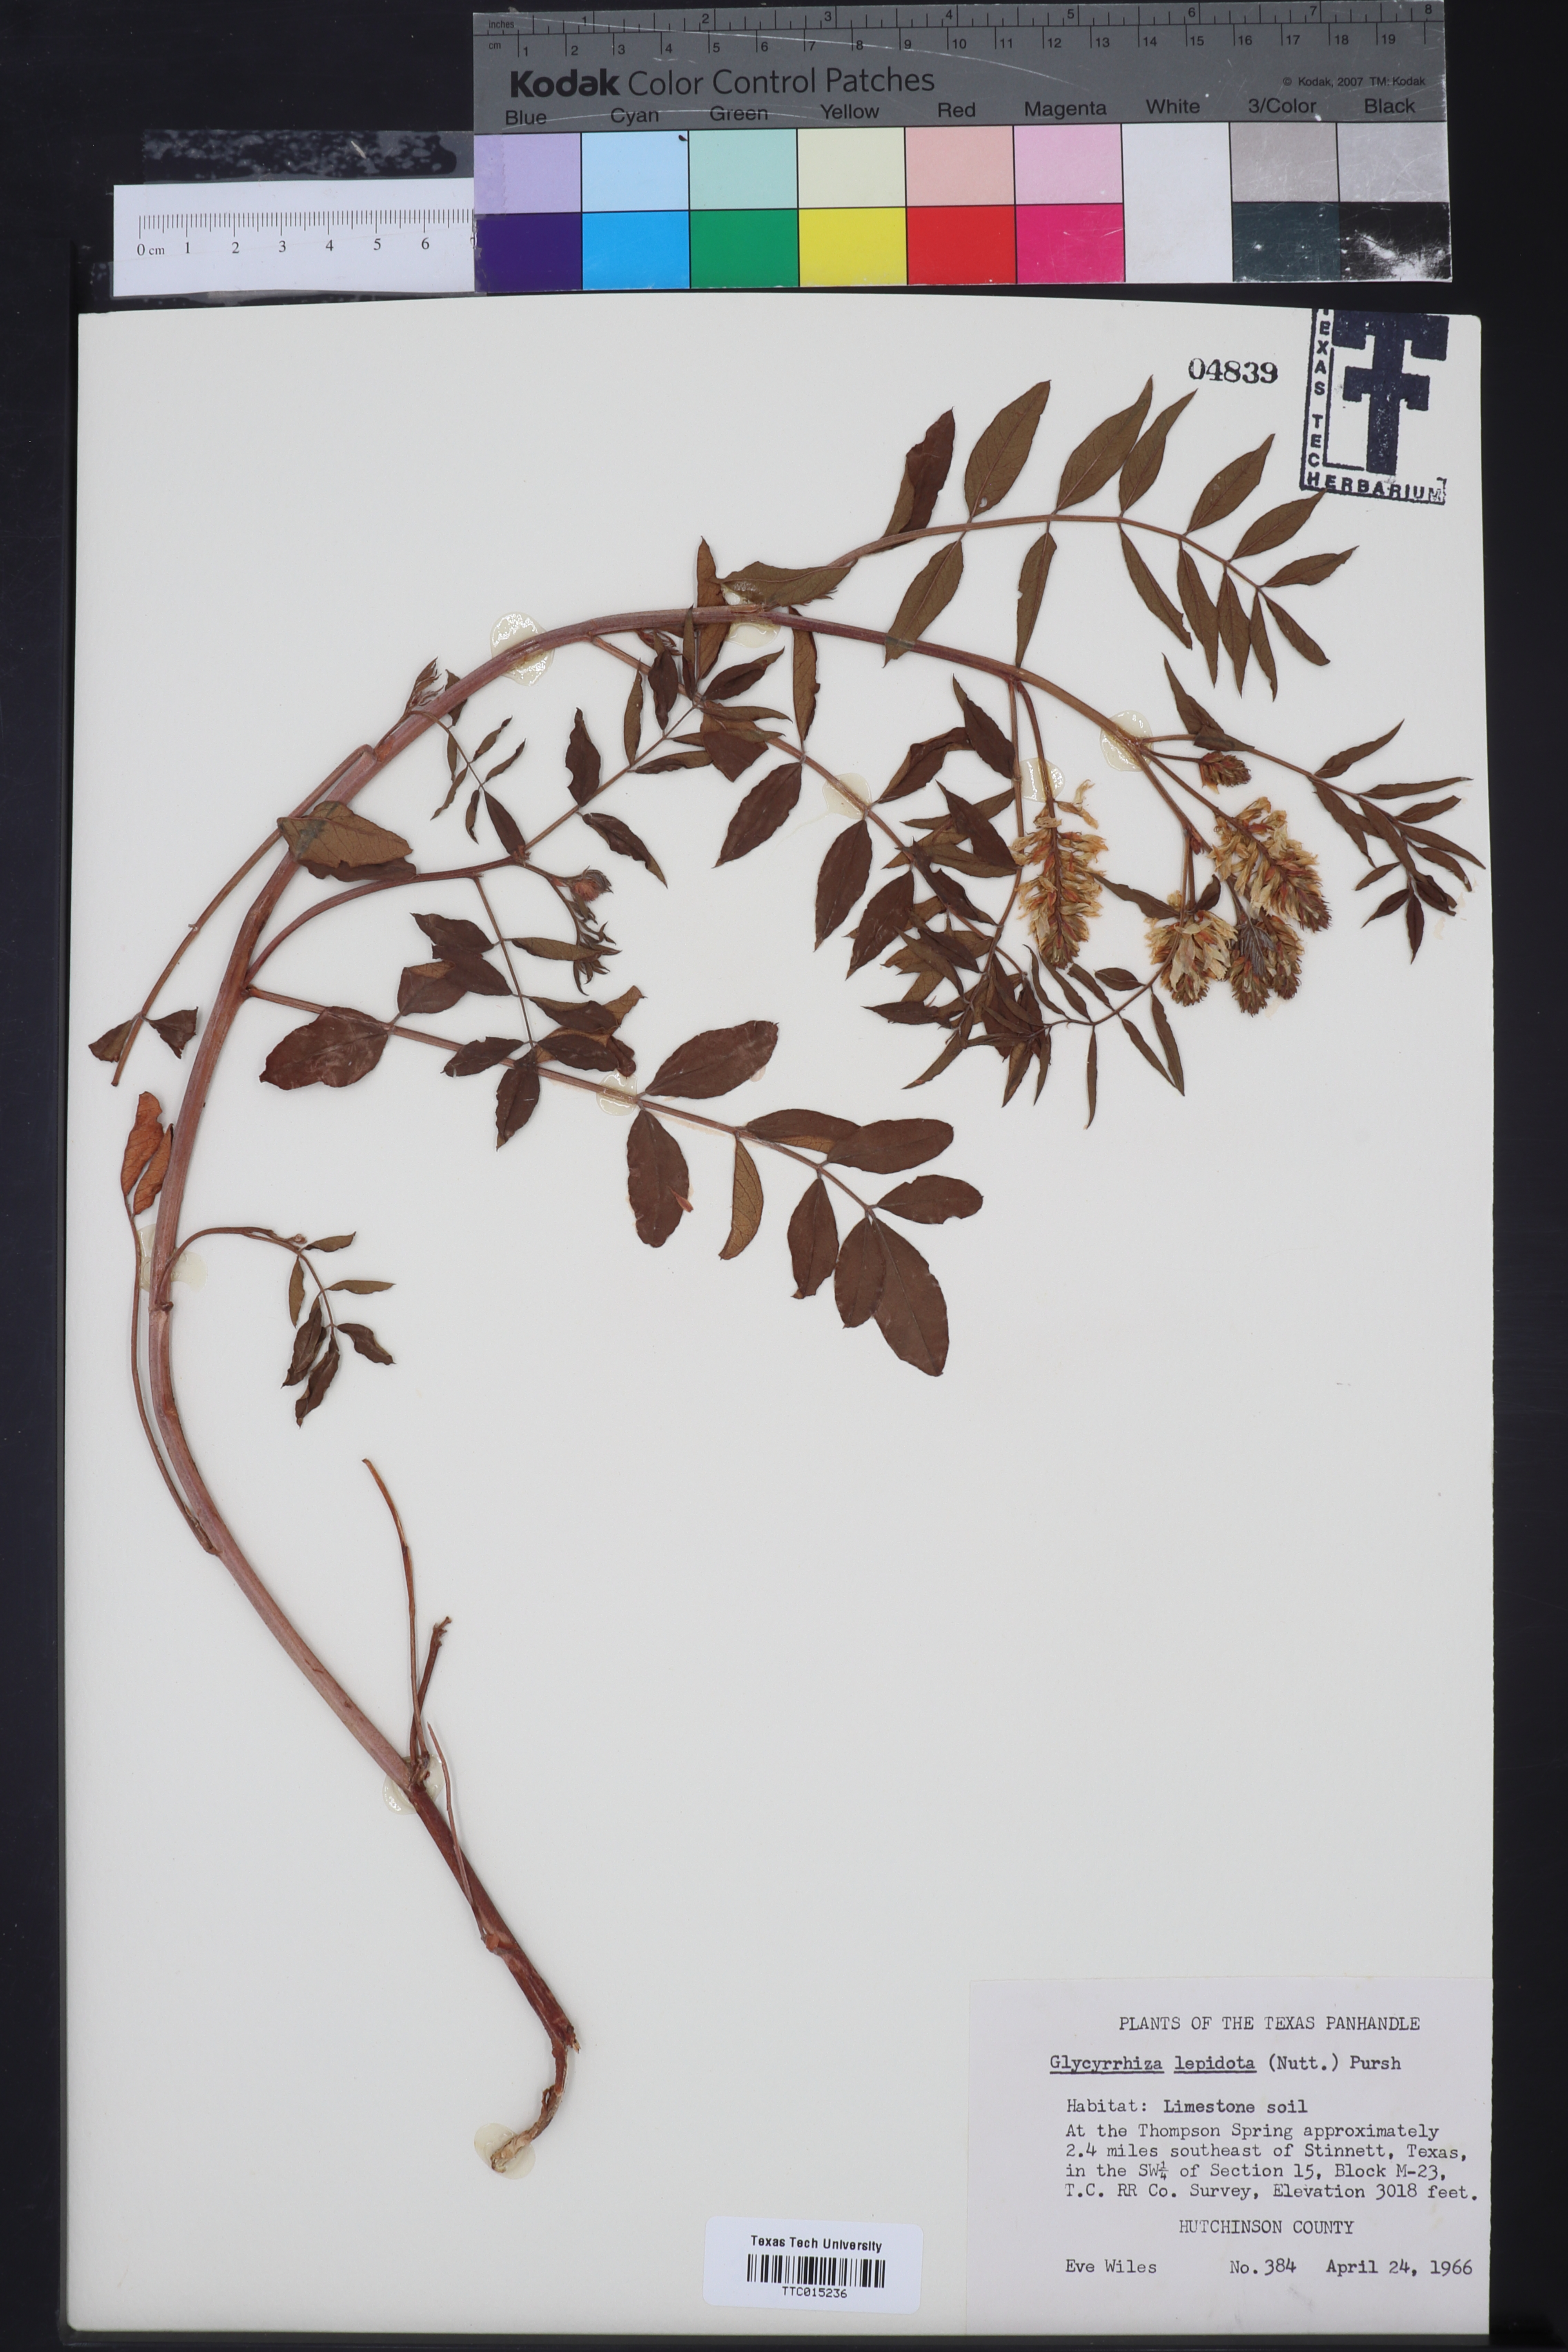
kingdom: Plantae
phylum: Tracheophyta
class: Magnoliopsida
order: Fabales
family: Fabaceae
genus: Glycyrrhiza
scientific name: Glycyrrhiza lepidota
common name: American liquorice
